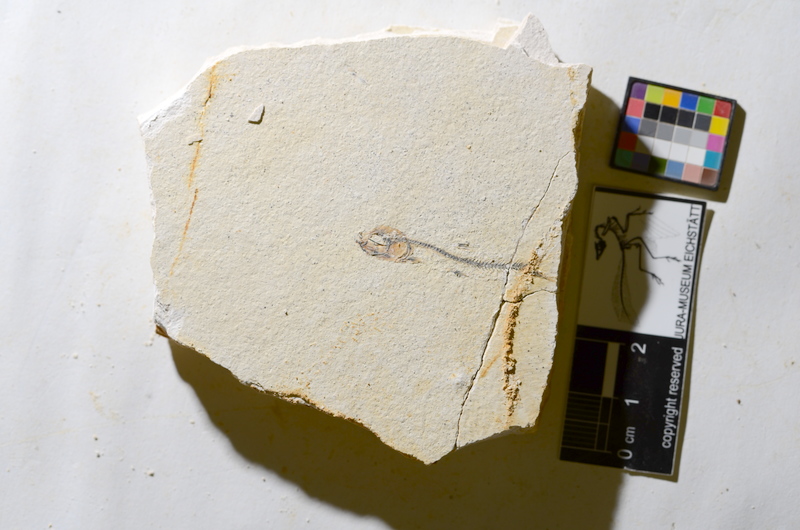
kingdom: Animalia
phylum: Chordata
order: Salmoniformes
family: Orthogonikleithridae
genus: Orthogonikleithrus
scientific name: Orthogonikleithrus hoelli
